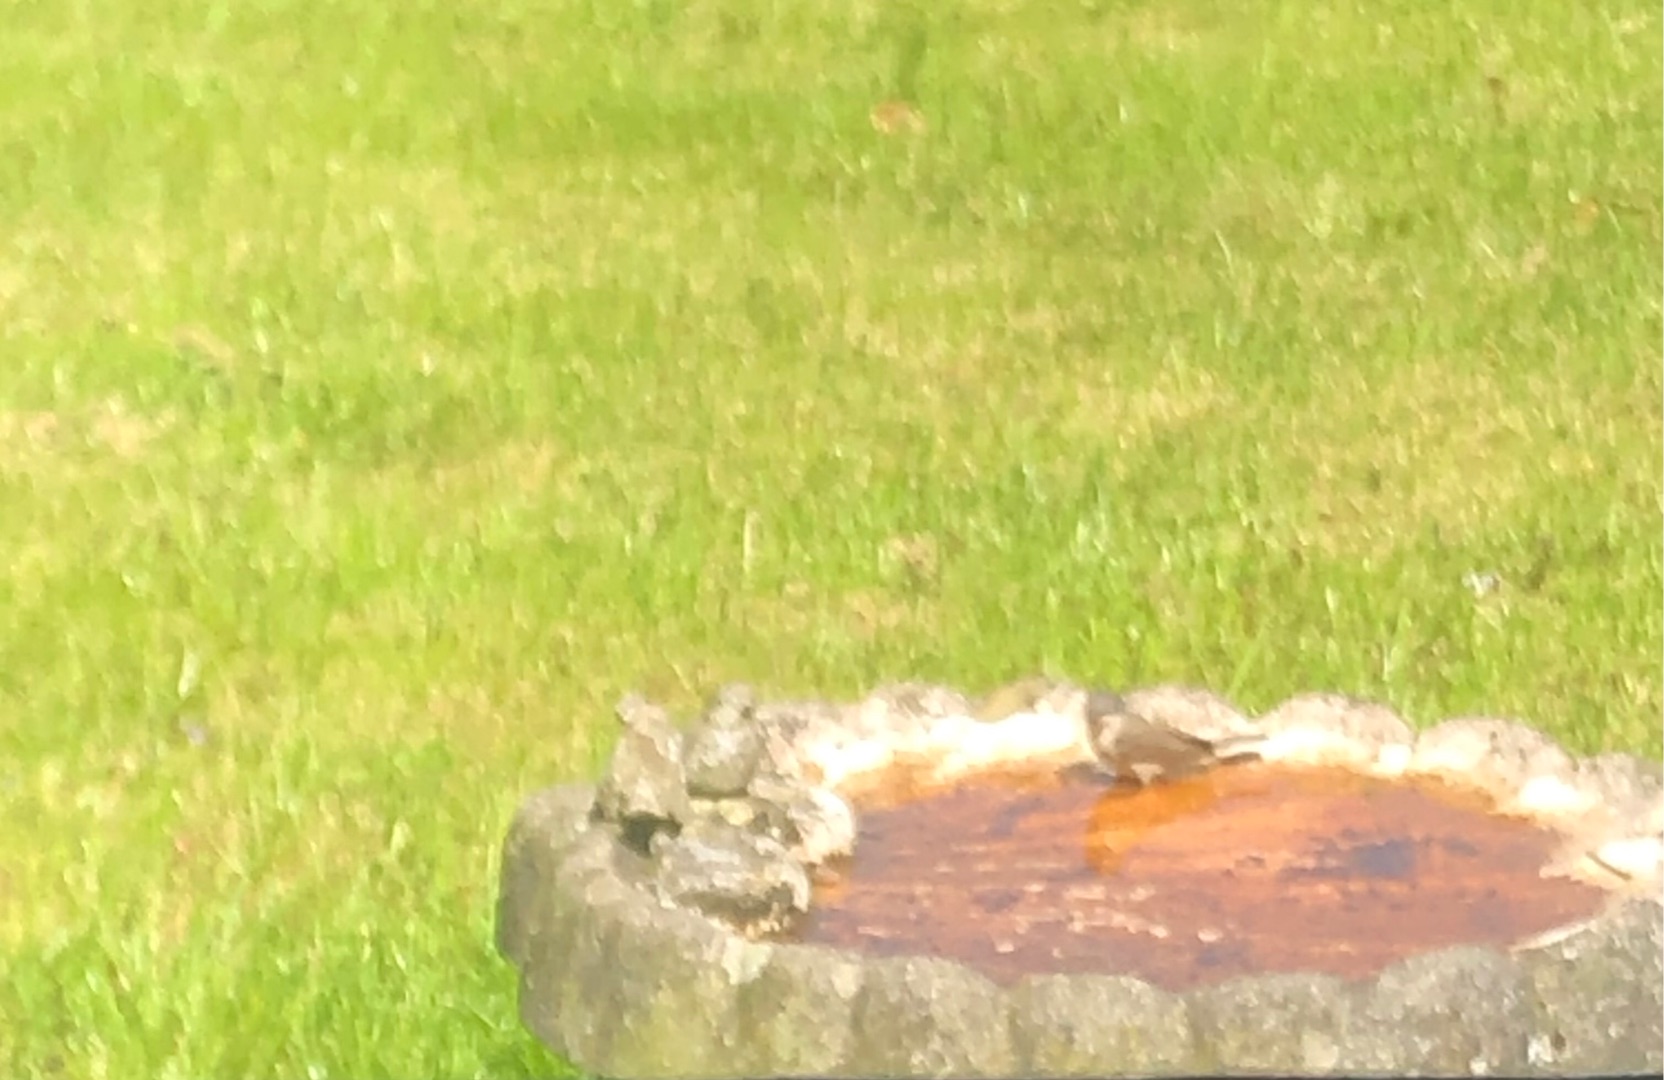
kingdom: Animalia
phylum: Chordata
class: Aves
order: Passeriformes
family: Sylviidae
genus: Sylvia
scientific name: Sylvia curruca
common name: Gærdesanger
